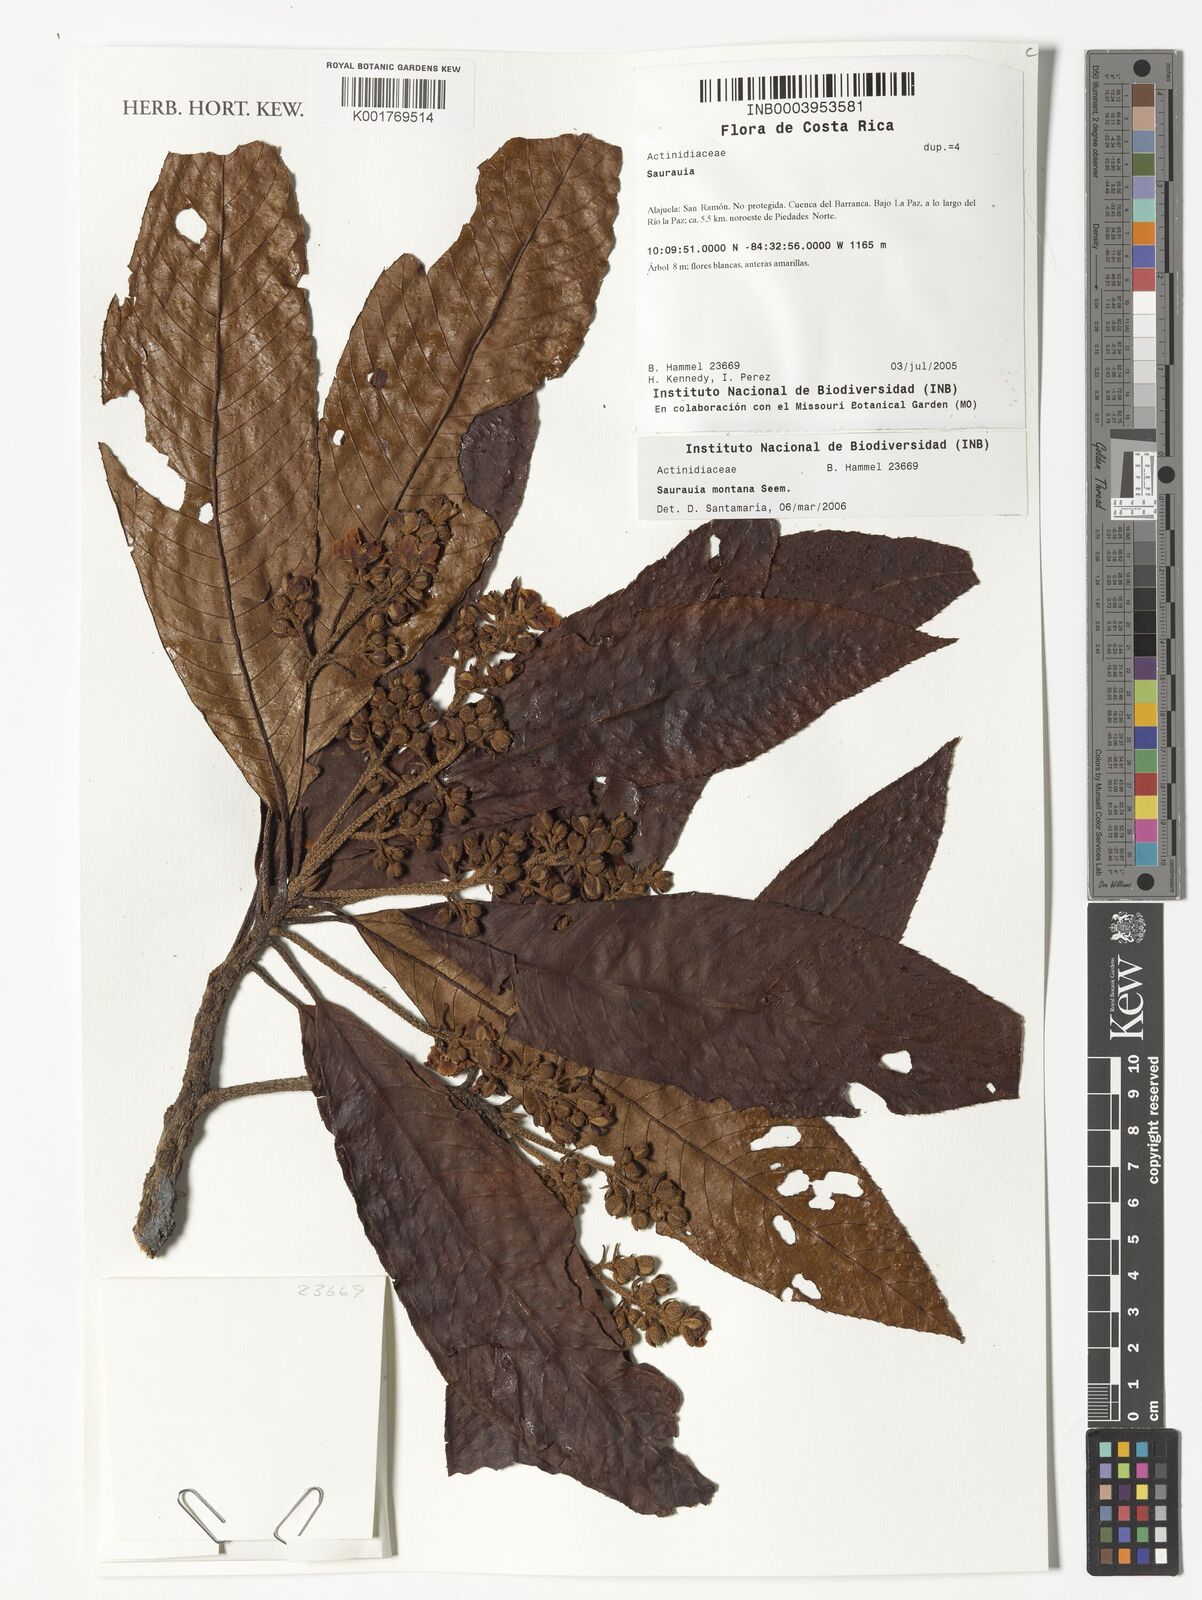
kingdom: Plantae
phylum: Tracheophyta
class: Magnoliopsida
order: Ericales
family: Actinidiaceae
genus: Saurauia
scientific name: Saurauia montana
